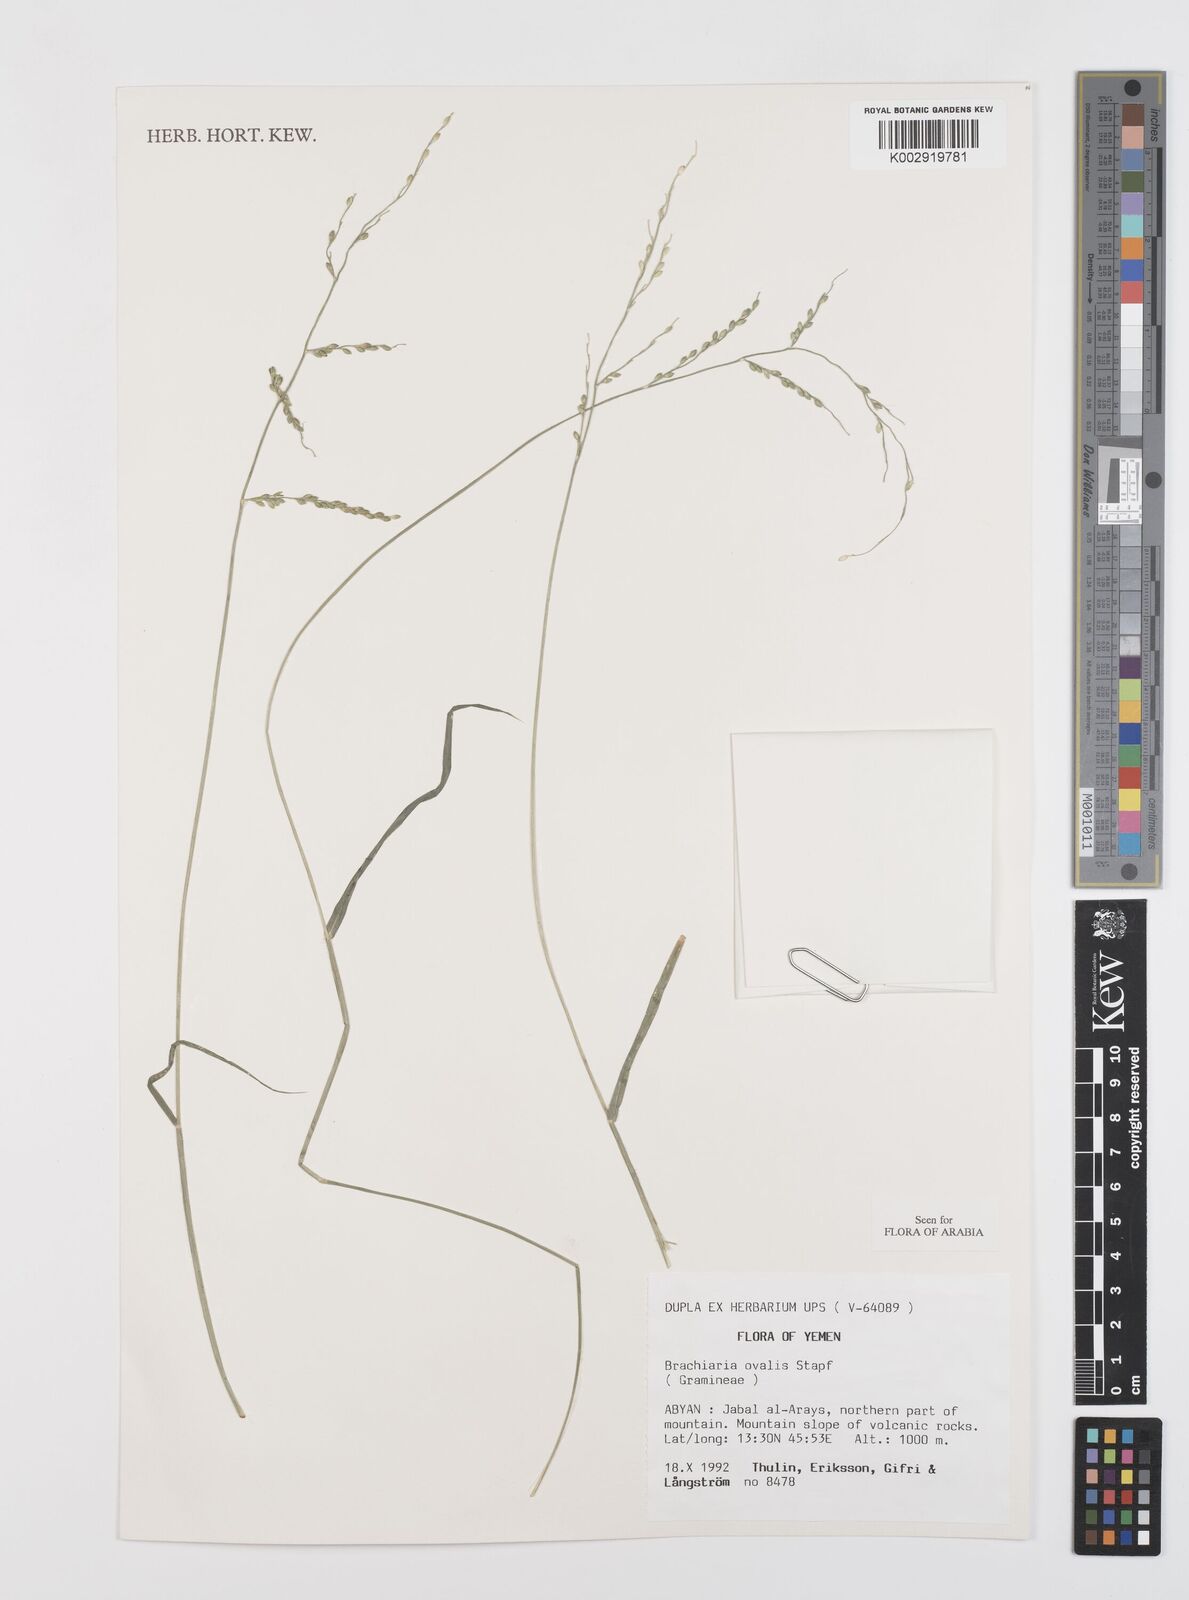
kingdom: Plantae
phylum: Tracheophyta
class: Liliopsida
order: Poales
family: Poaceae
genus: Urochloa
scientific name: Urochloa ovalis
